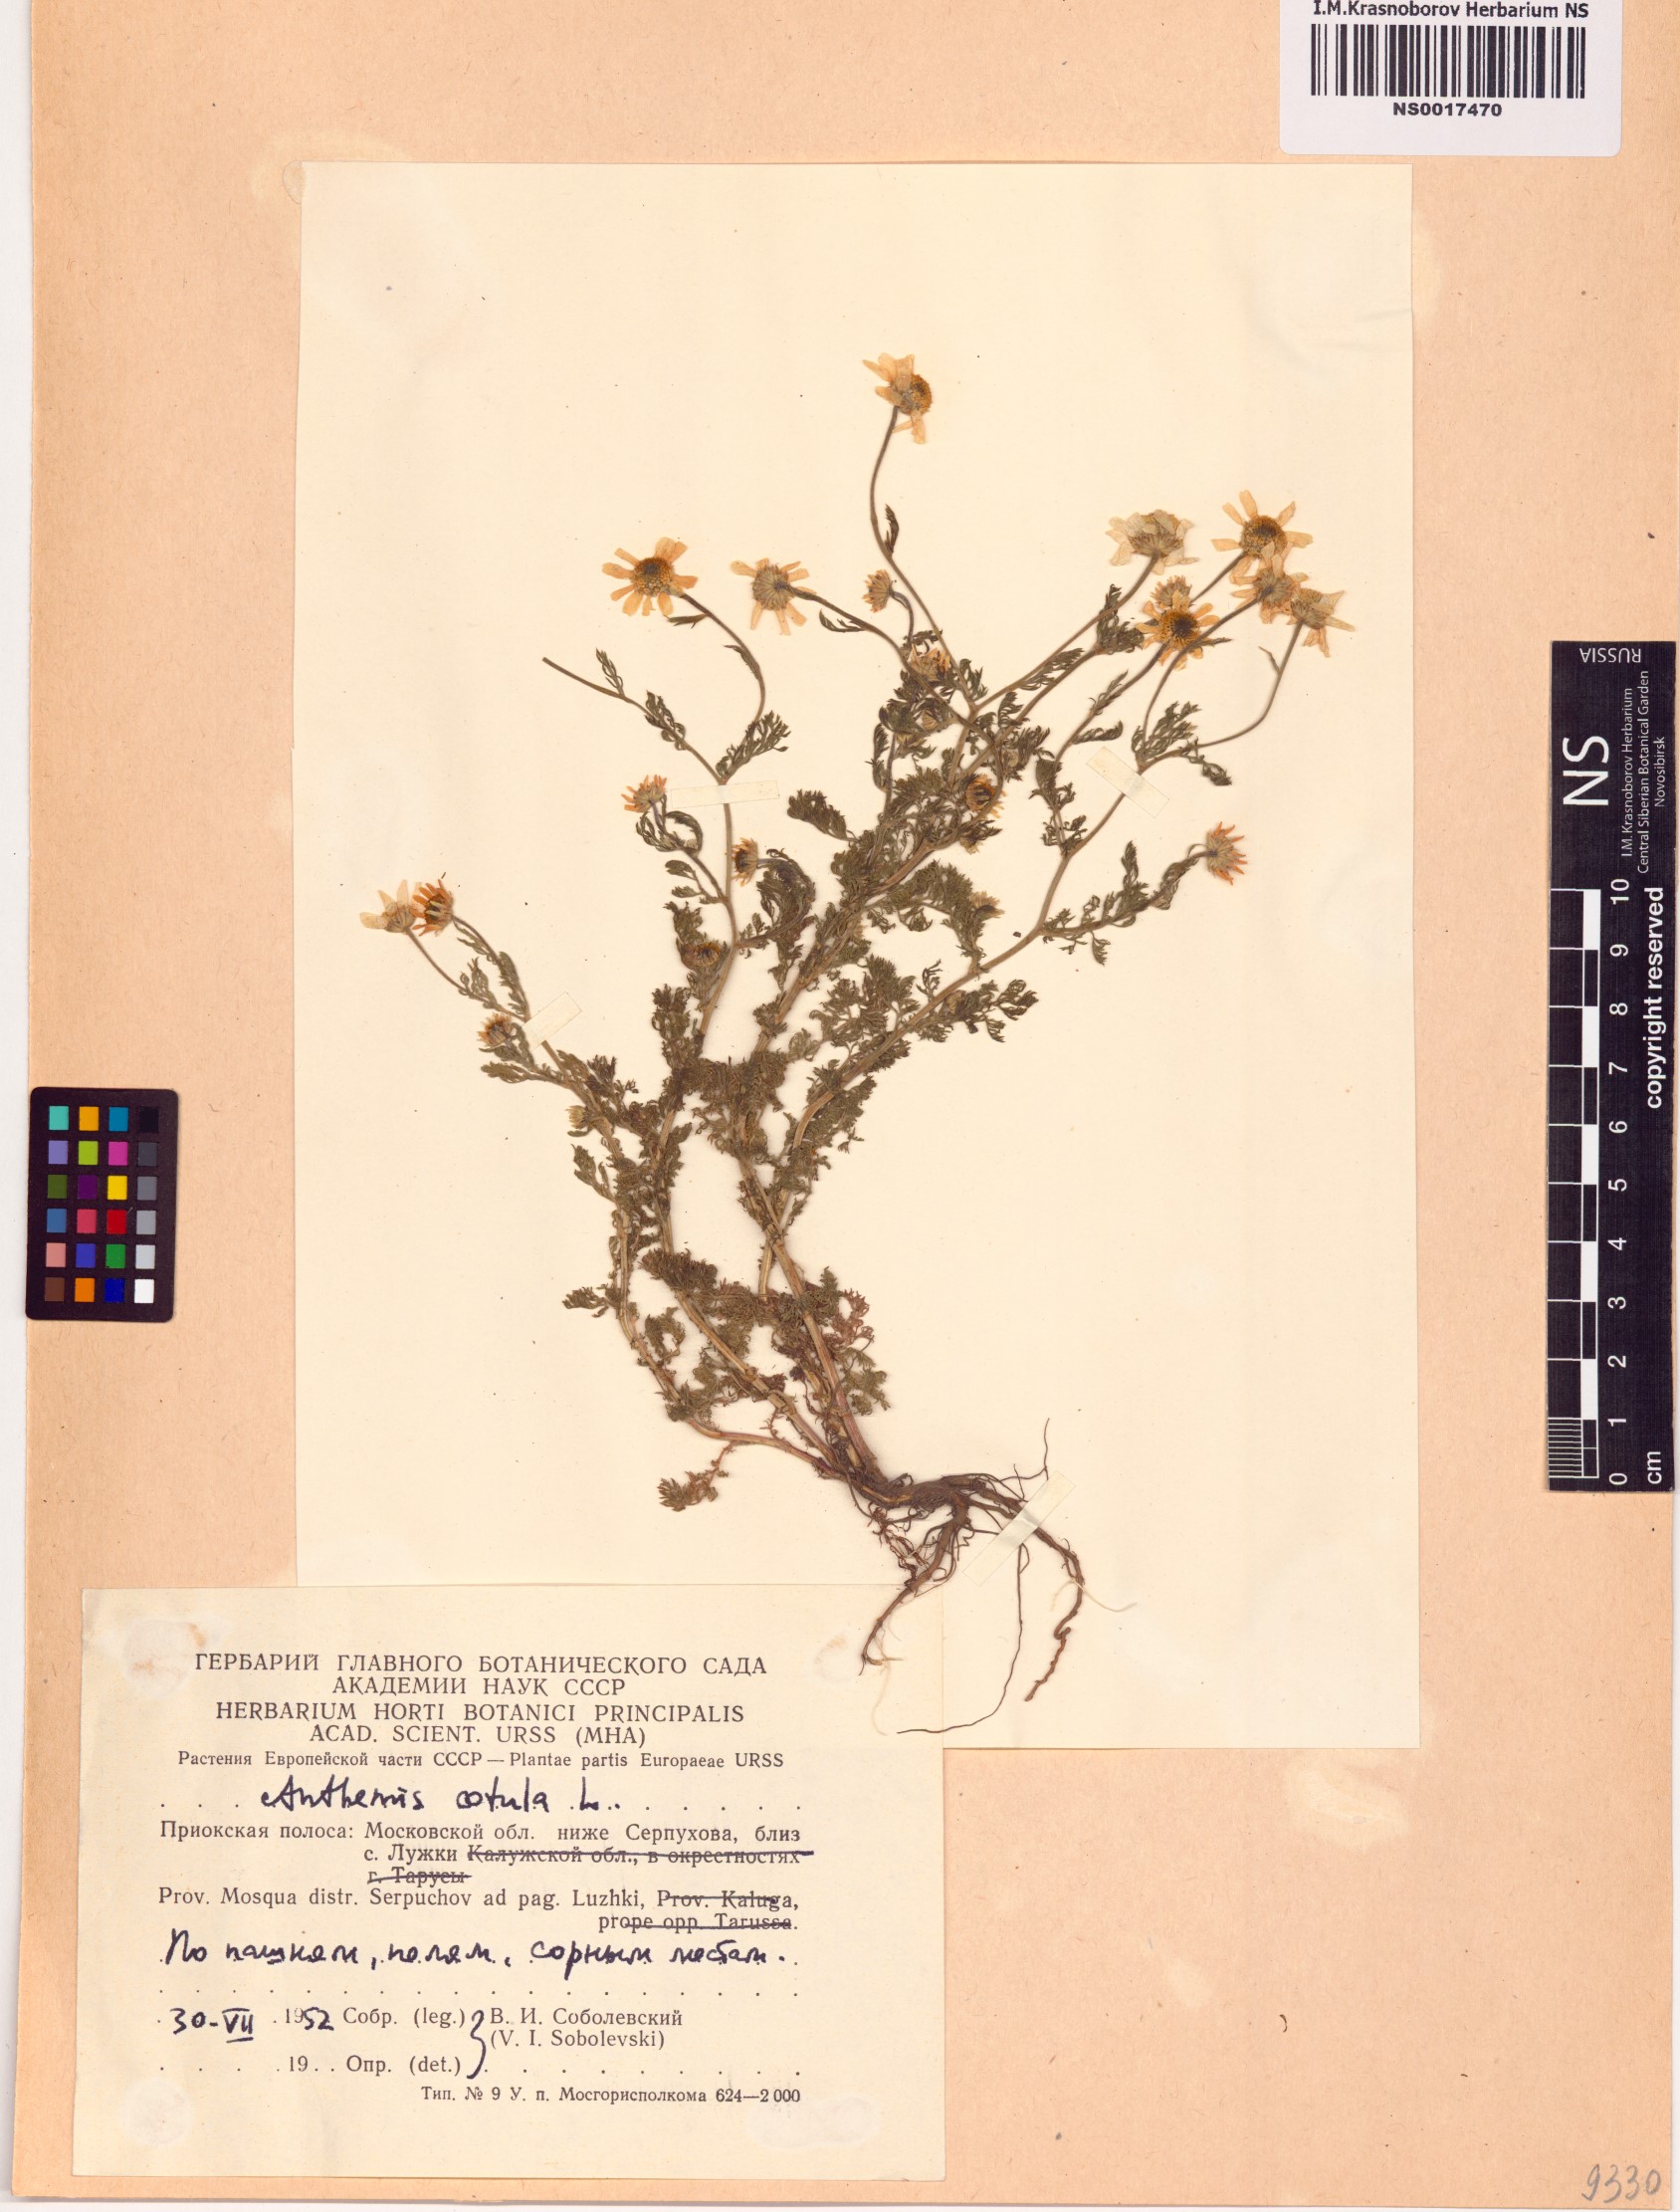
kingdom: Plantae
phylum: Tracheophyta
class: Magnoliopsida
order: Asterales
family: Asteraceae
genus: Anthemis
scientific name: Anthemis cotula
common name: Stinking chamomile
